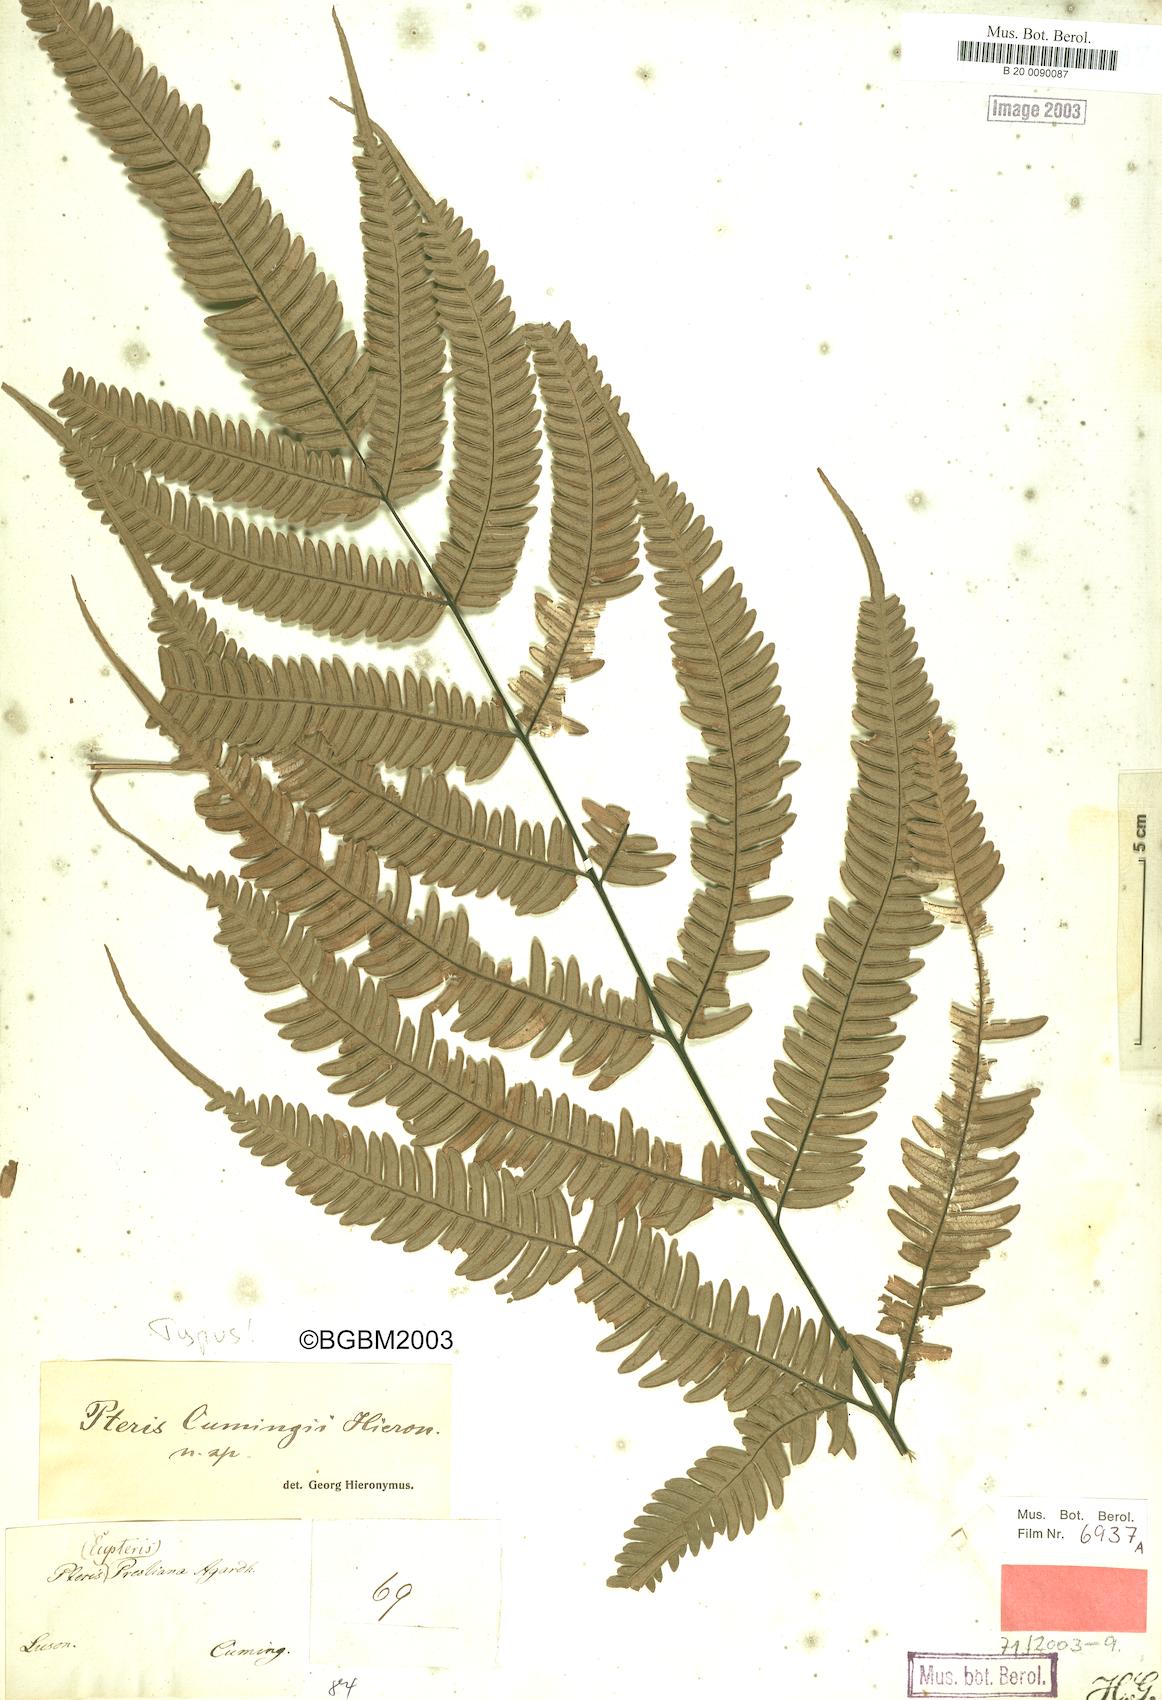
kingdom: Plantae
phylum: Tracheophyta
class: Polypodiopsida
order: Polypodiales
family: Pteridaceae
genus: Pteris
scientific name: Pteris biaurita
